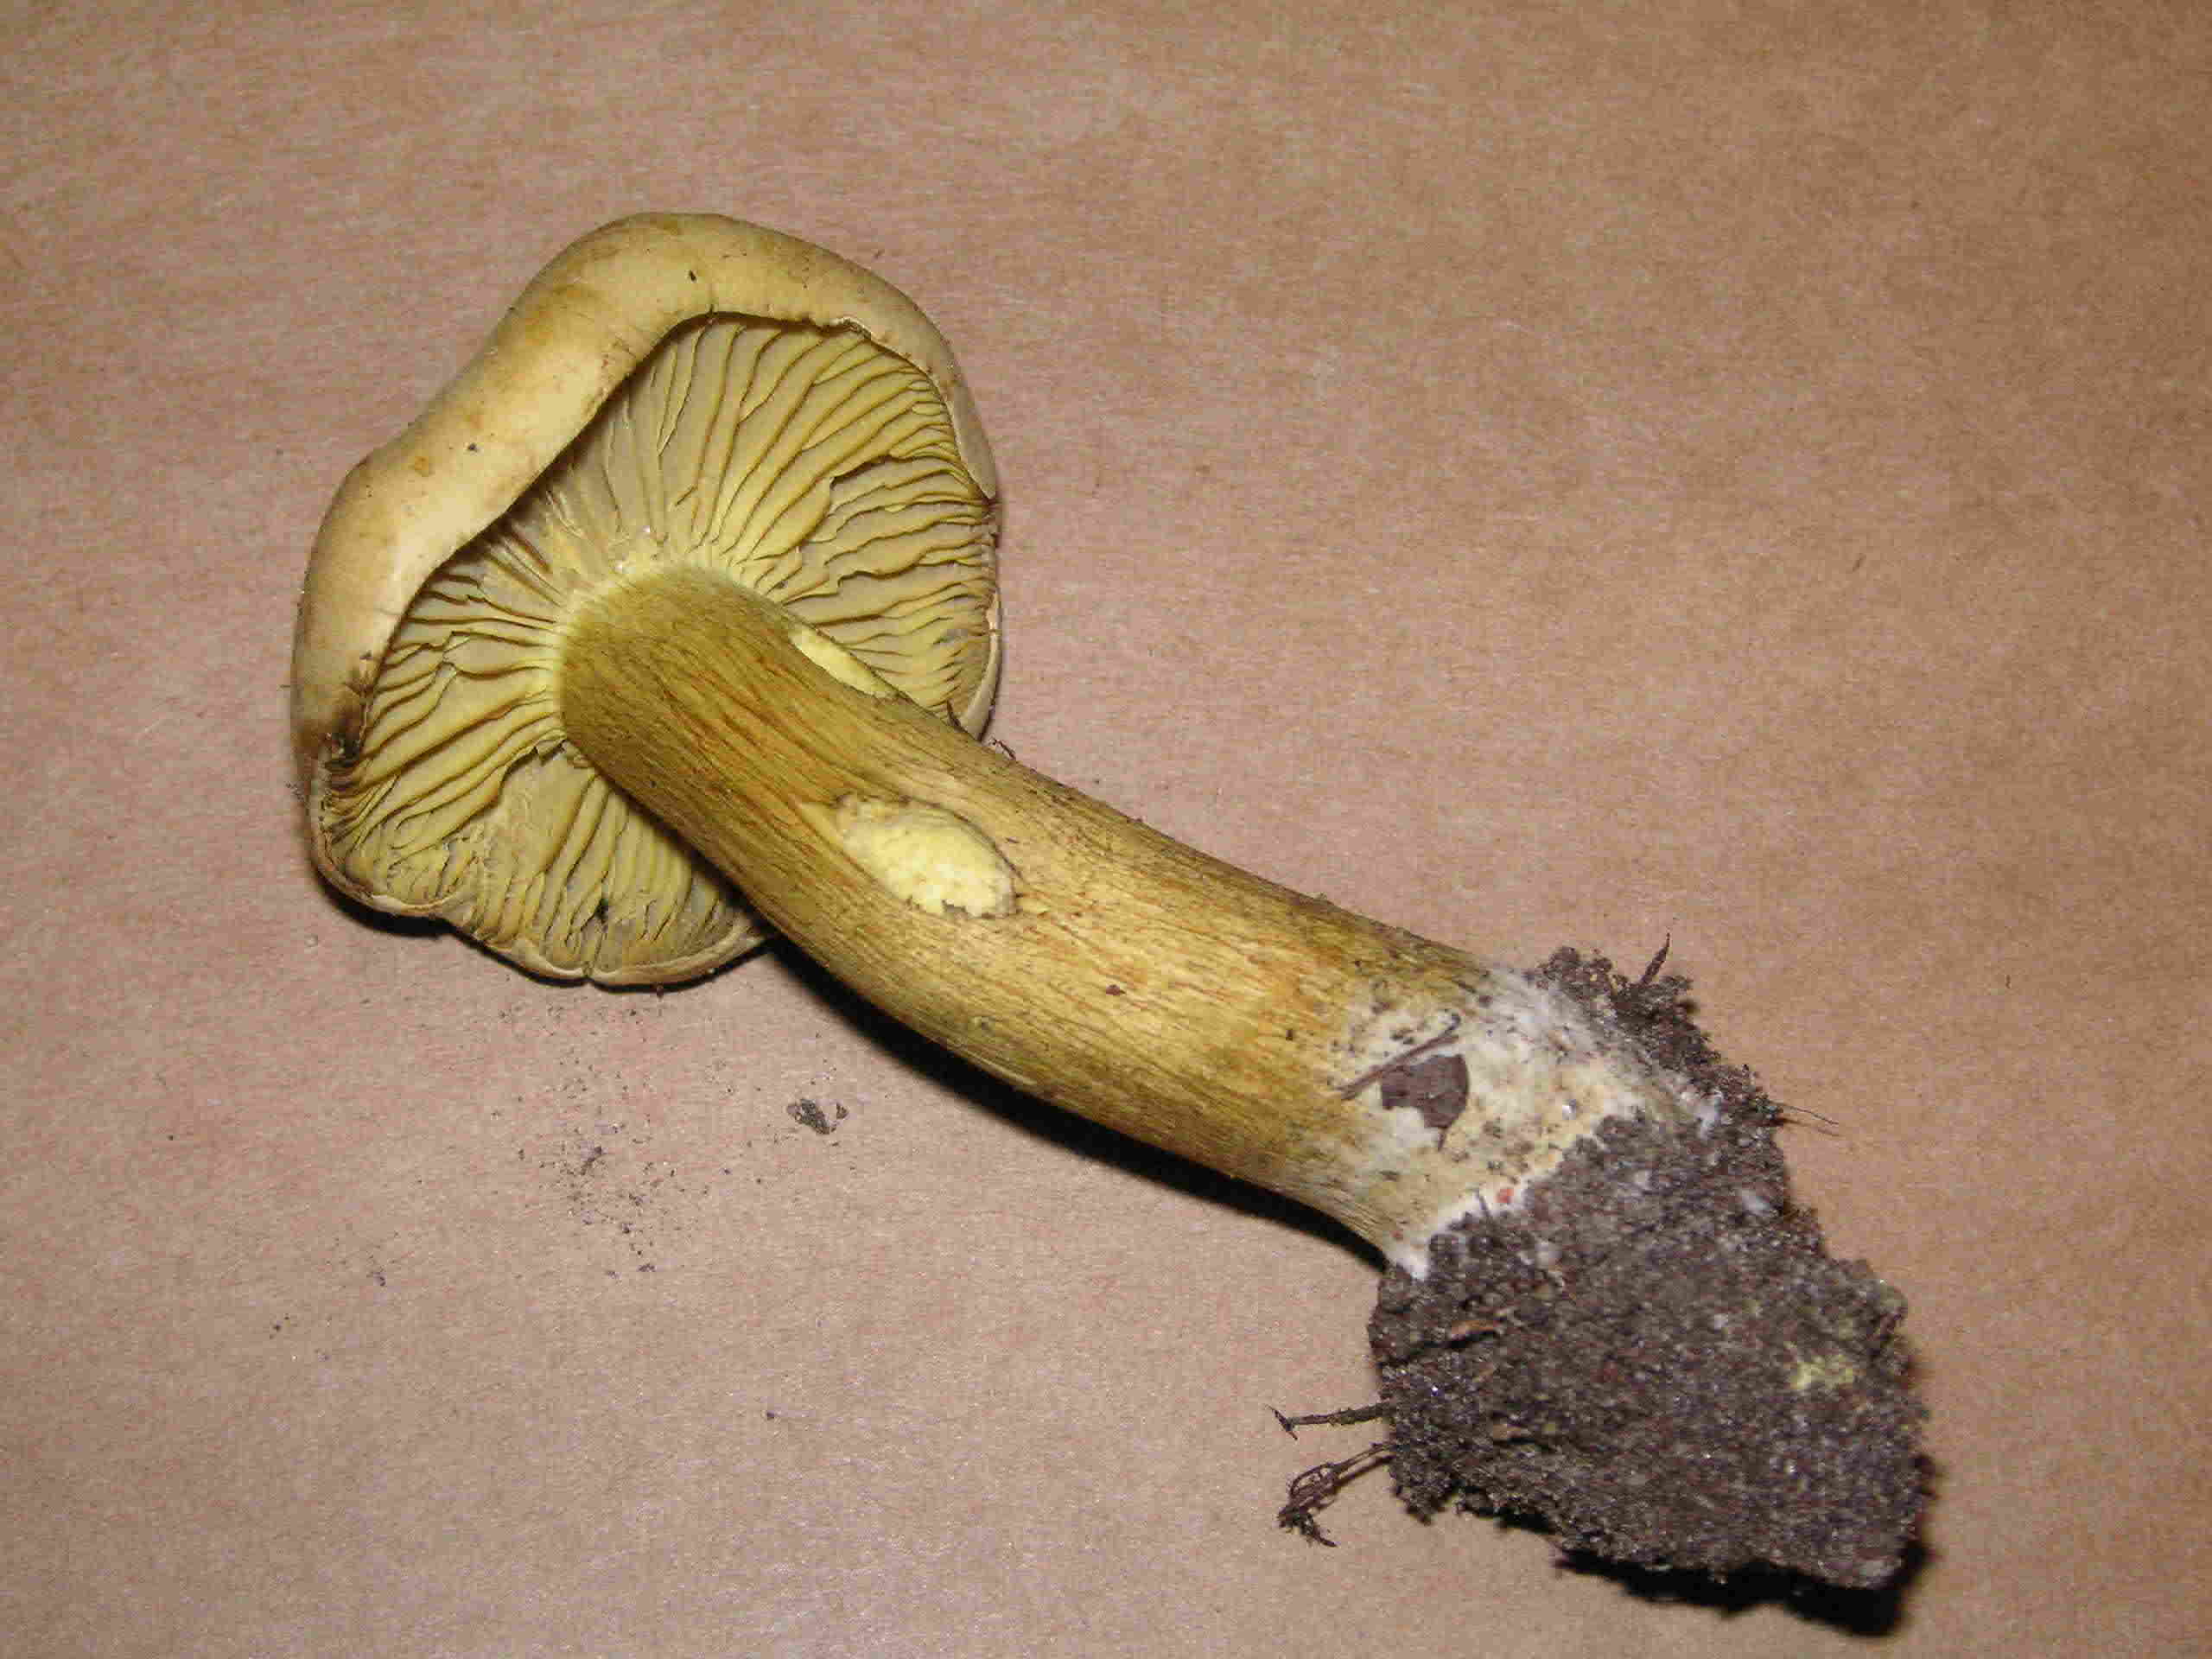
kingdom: Fungi
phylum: Basidiomycota
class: Agaricomycetes
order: Agaricales
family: Tricholomataceae
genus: Tricholoma
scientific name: Tricholoma sulphureum
